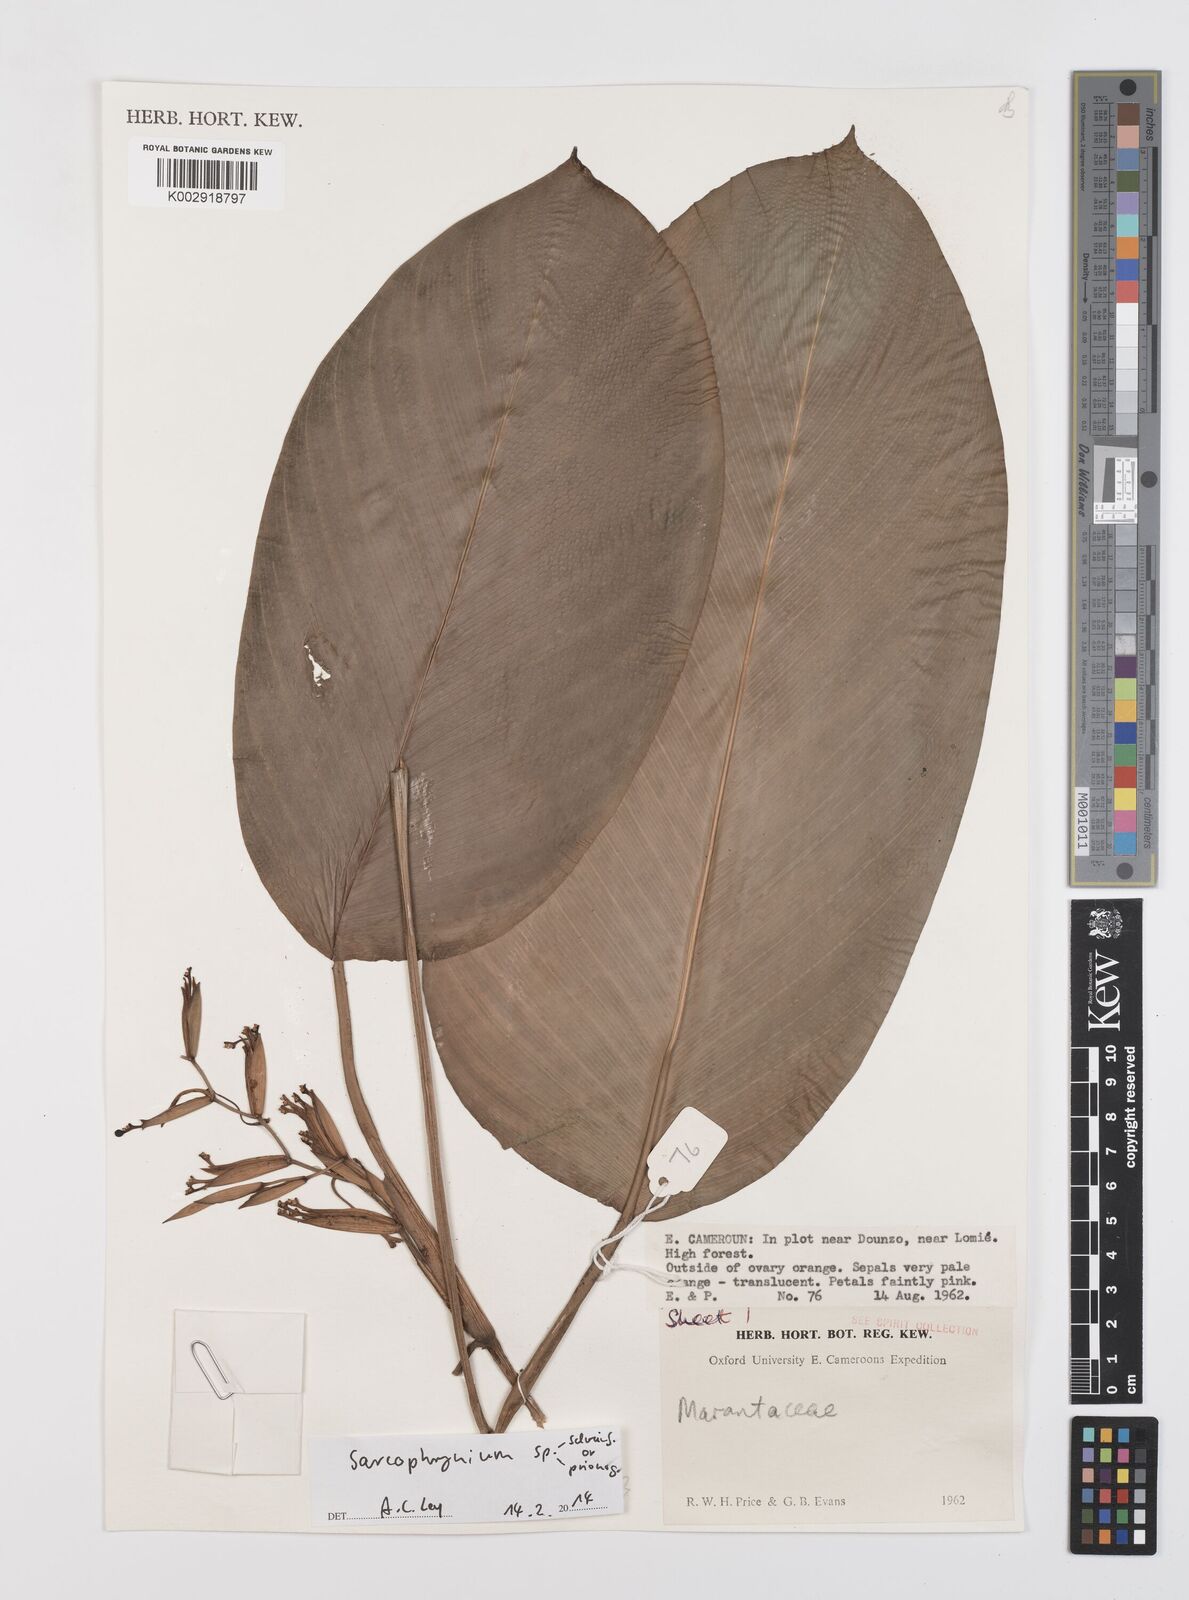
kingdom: Plantae
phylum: Tracheophyta
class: Liliopsida
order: Zingiberales
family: Marantaceae
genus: Sarcophrynium
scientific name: Sarcophrynium
